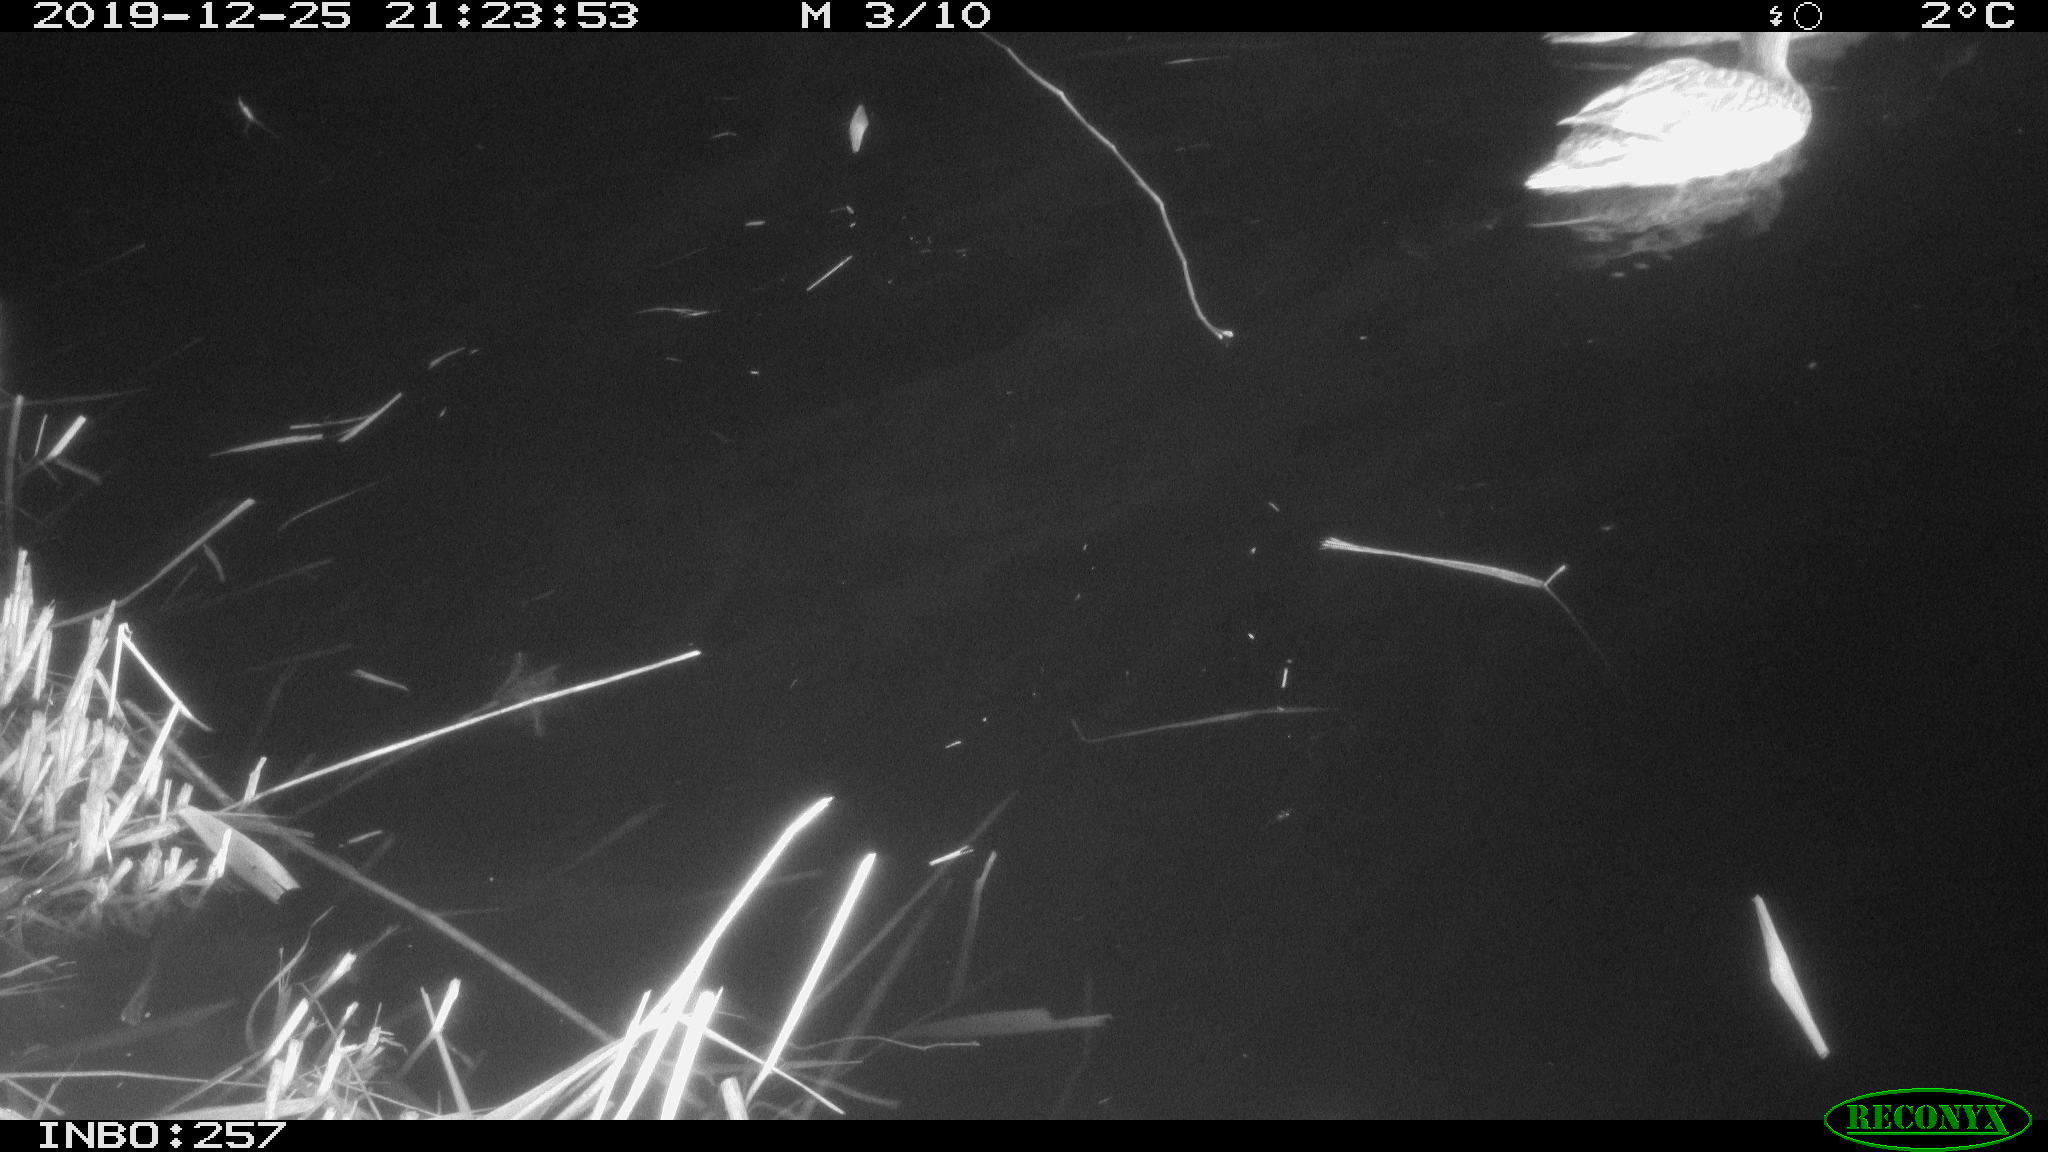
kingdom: Animalia
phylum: Chordata
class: Aves
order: Anseriformes
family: Anatidae
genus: Anas
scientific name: Anas platyrhynchos
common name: Mallard
